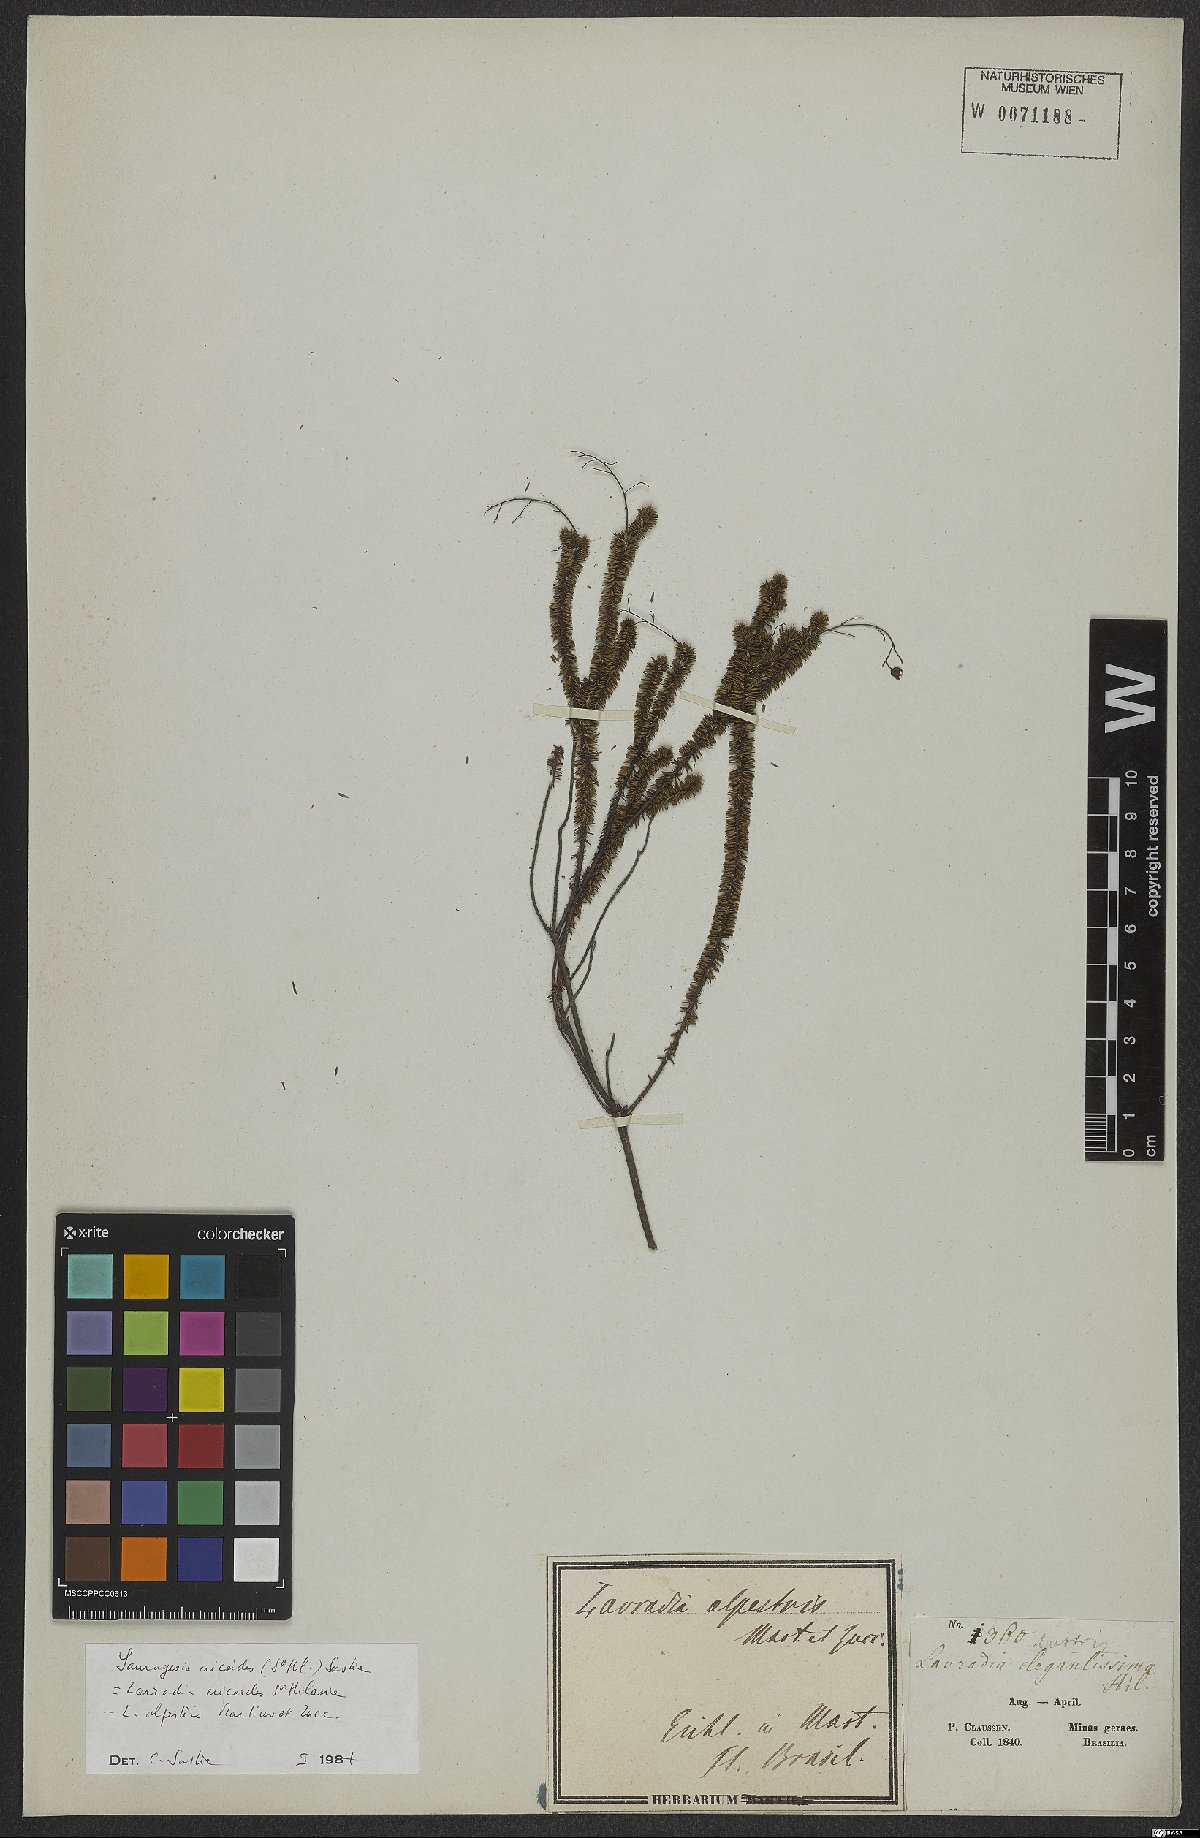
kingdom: Plantae
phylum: Tracheophyta
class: Magnoliopsida
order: Malpighiales
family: Ochnaceae
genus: Sauvagesia
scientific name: Sauvagesia ericoides
